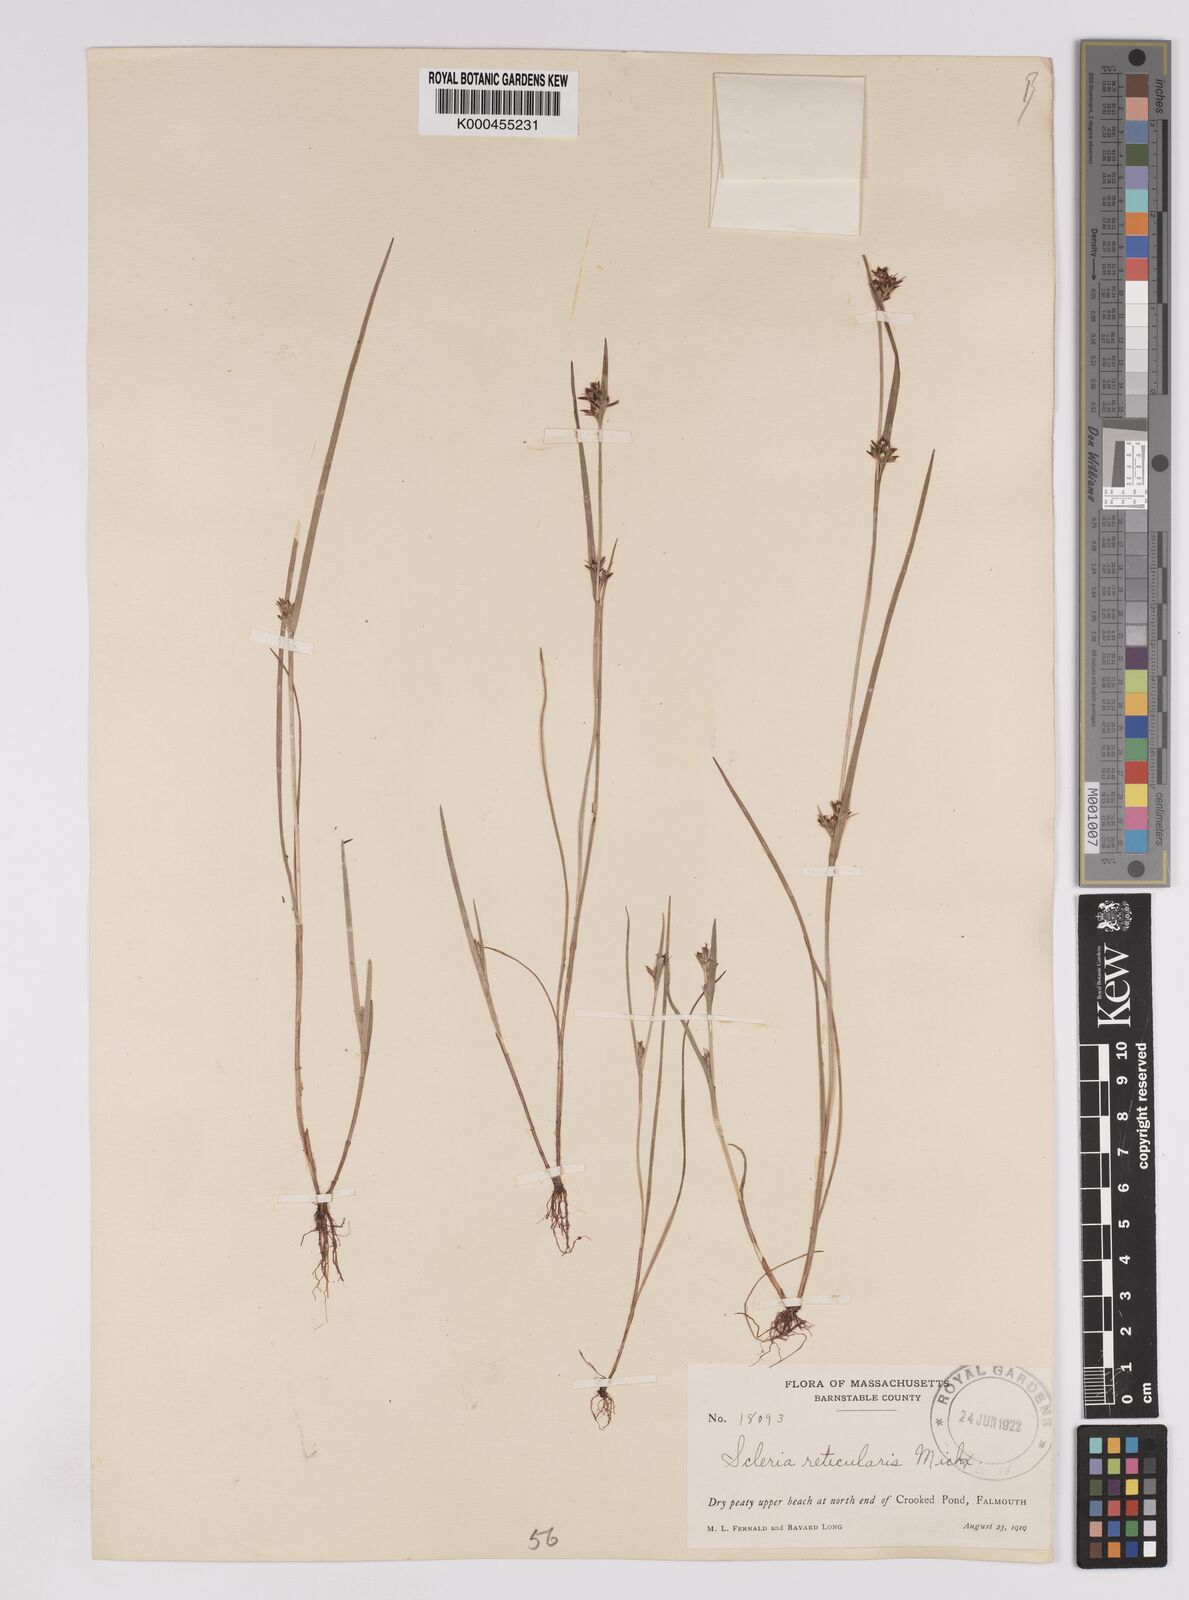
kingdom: Plantae
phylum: Tracheophyta
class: Liliopsida
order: Poales
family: Cyperaceae
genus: Scleria
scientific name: Scleria
